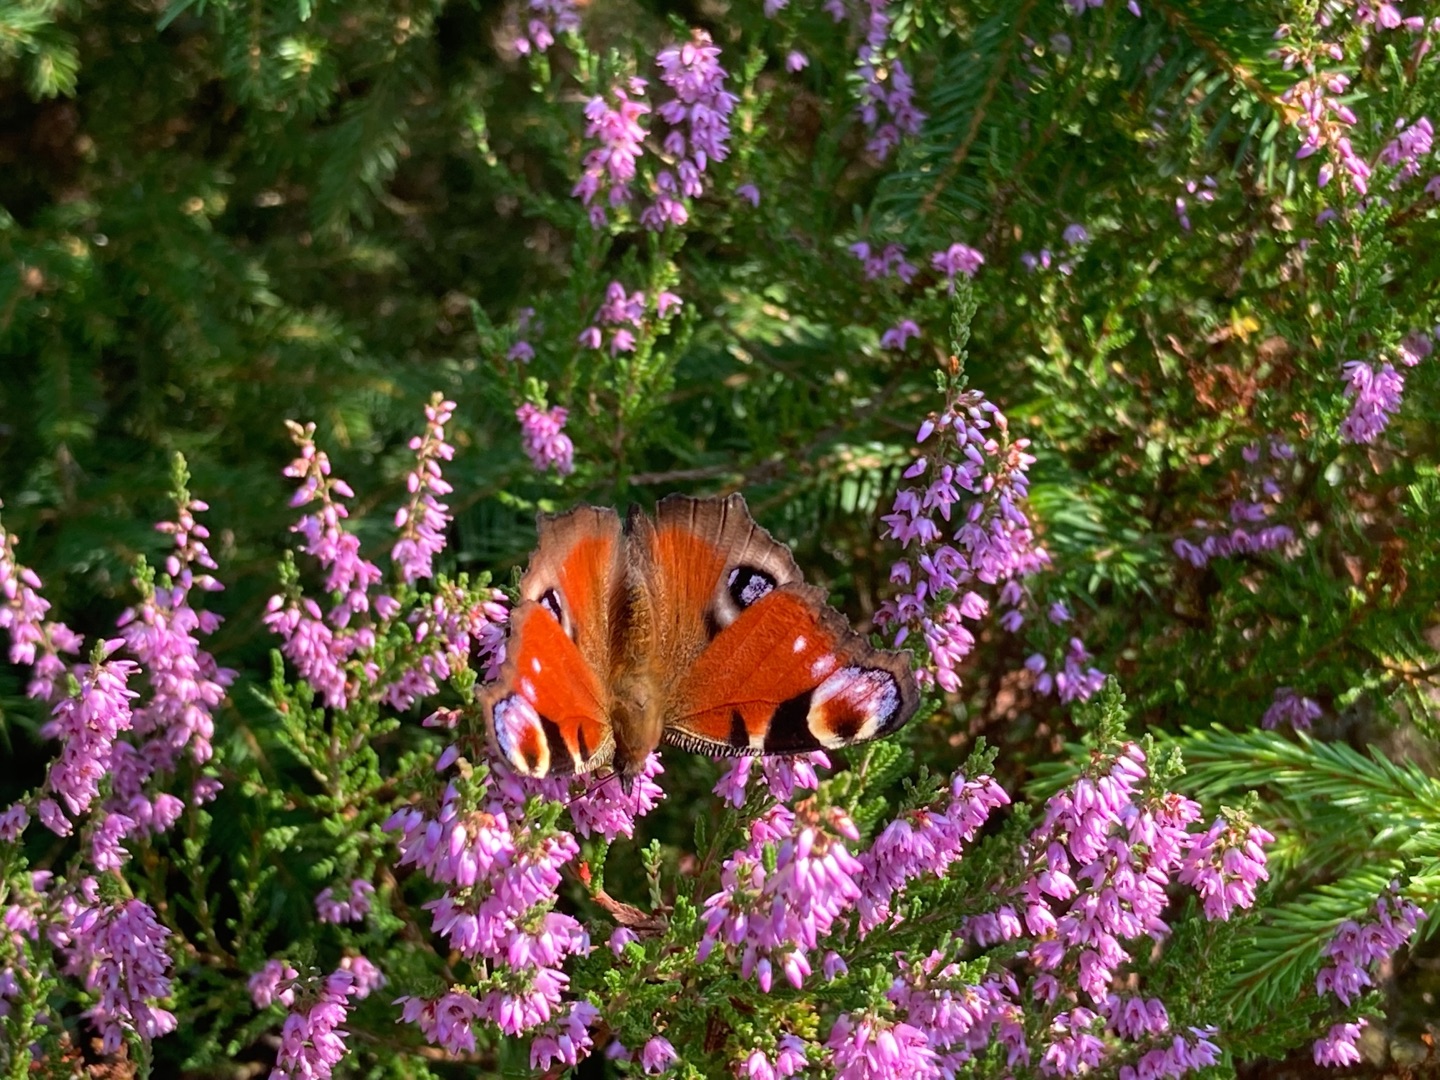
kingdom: Animalia
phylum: Arthropoda
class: Insecta
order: Lepidoptera
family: Nymphalidae
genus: Aglais
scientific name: Aglais io
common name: Dagpåfugleøje
